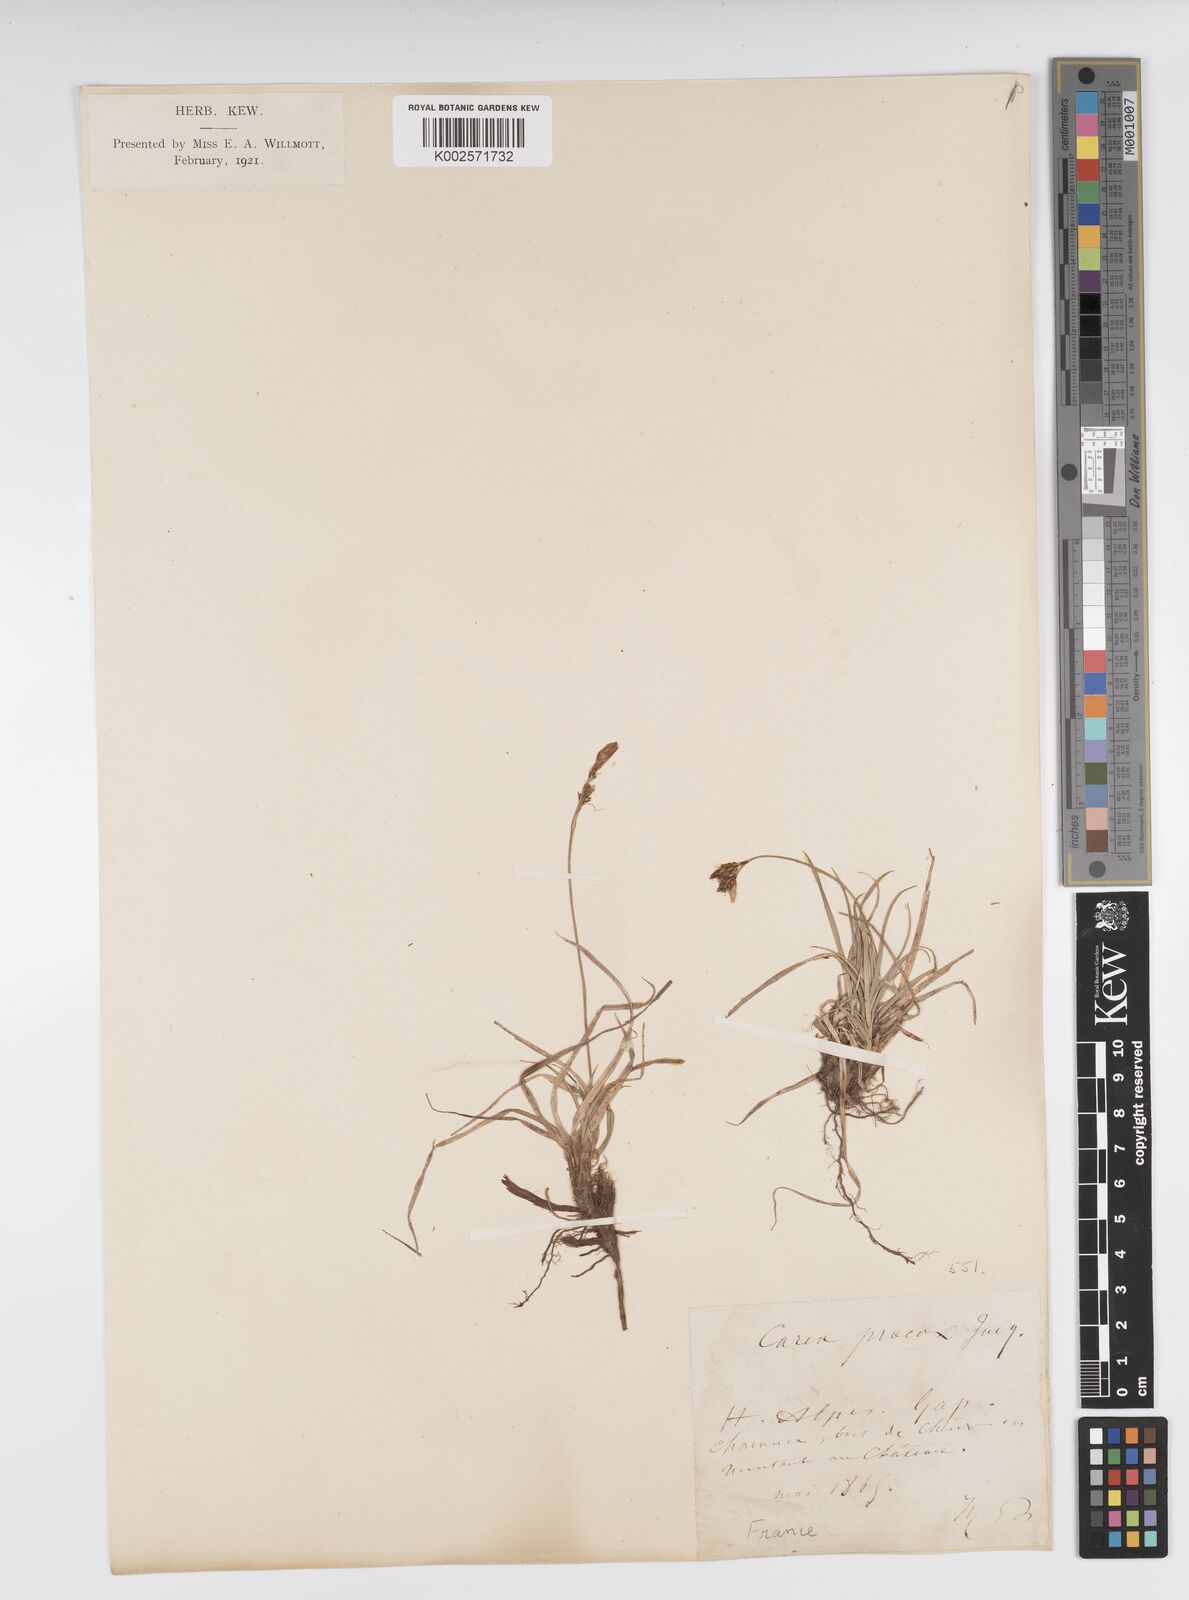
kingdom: Plantae
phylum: Tracheophyta
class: Liliopsida
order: Poales
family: Cyperaceae
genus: Carex
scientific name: Carex caryophyllea
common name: Spring sedge
